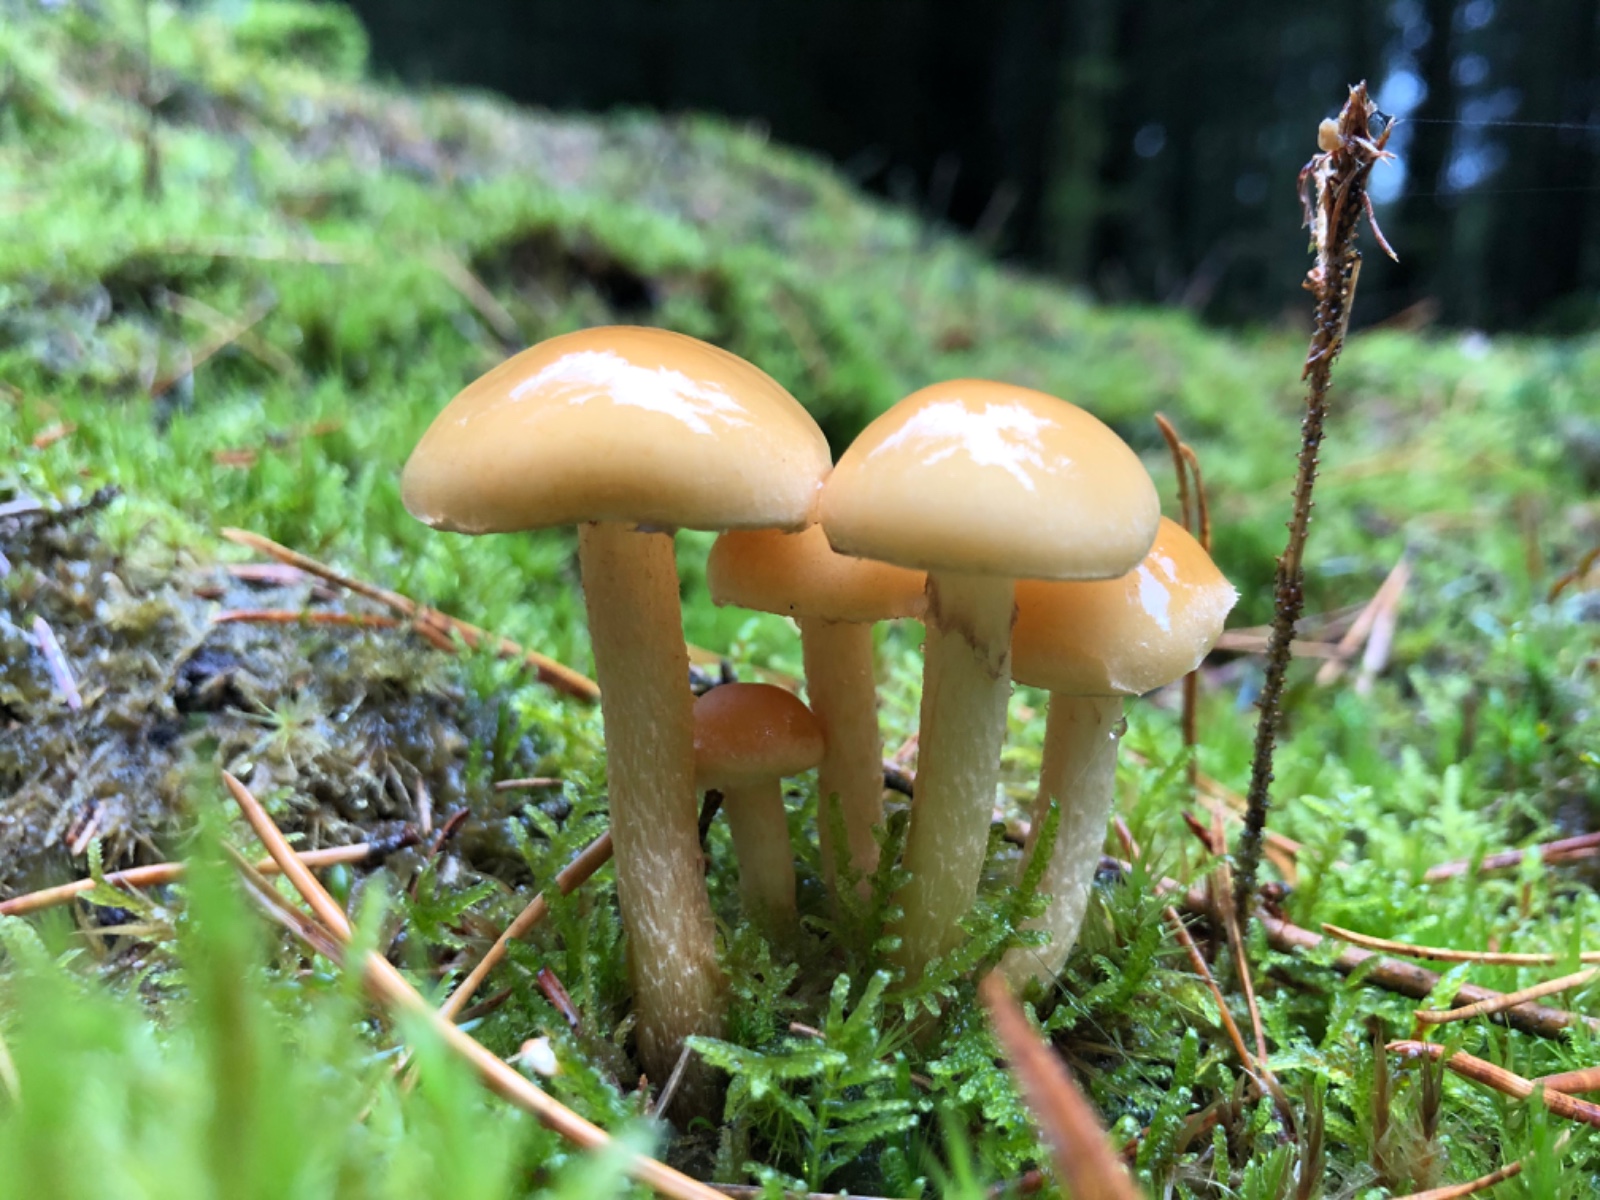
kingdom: Fungi
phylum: Basidiomycota
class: Agaricomycetes
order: Agaricales
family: Strophariaceae
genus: Hypholoma
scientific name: Hypholoma capnoides
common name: gran-svovlhat
